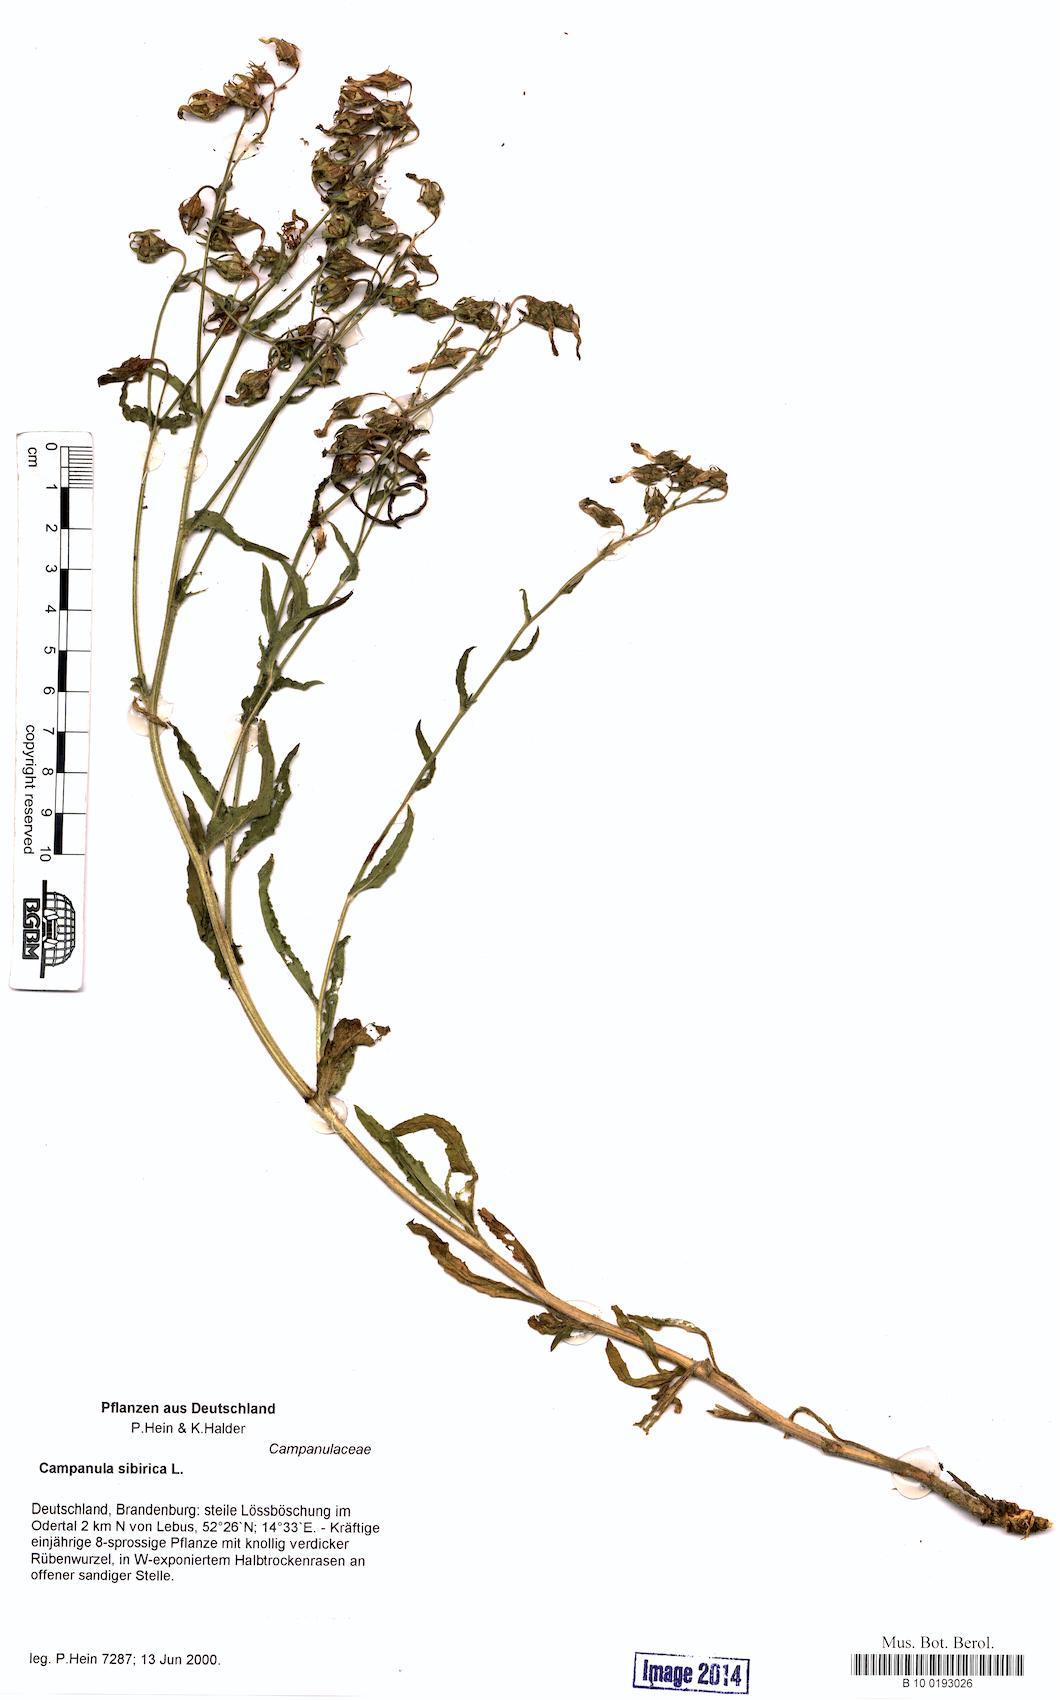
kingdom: Plantae
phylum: Tracheophyta
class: Magnoliopsida
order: Asterales
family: Campanulaceae
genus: Campanula
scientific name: Campanula sibirica
